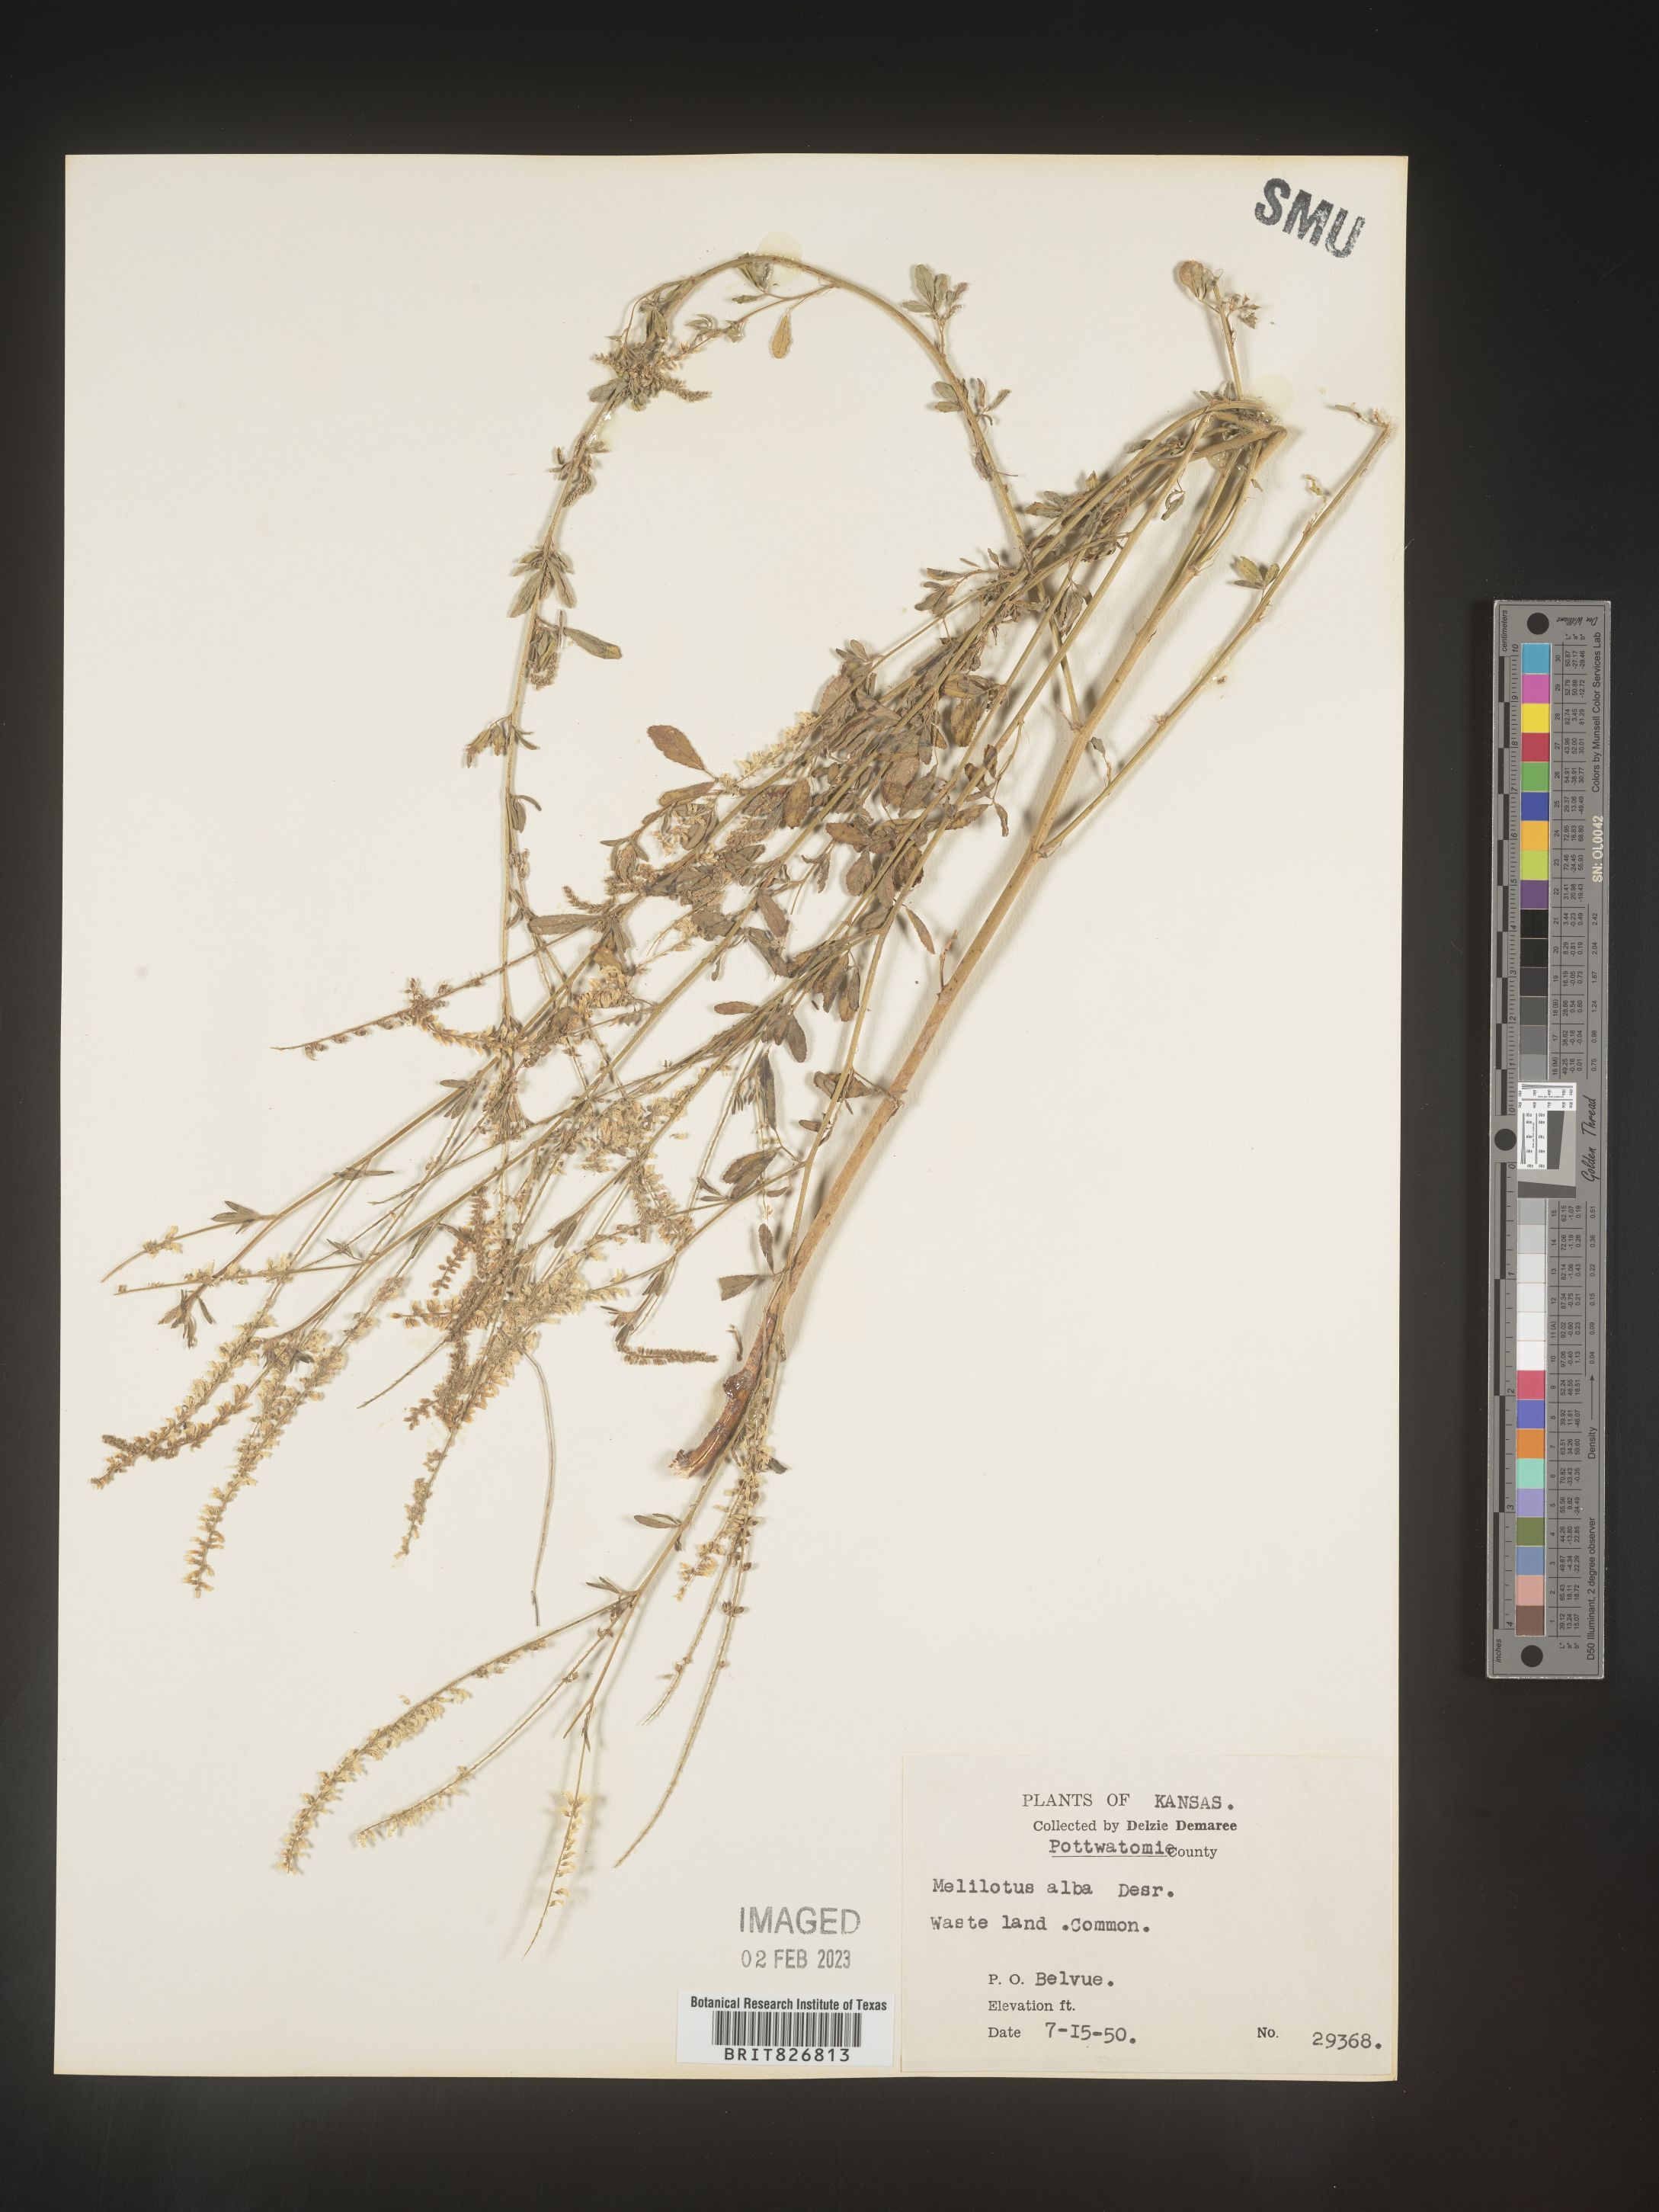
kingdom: Plantae
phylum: Tracheophyta
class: Magnoliopsida
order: Fabales
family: Fabaceae
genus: Melilotus
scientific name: Melilotus albus
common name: White melilot
